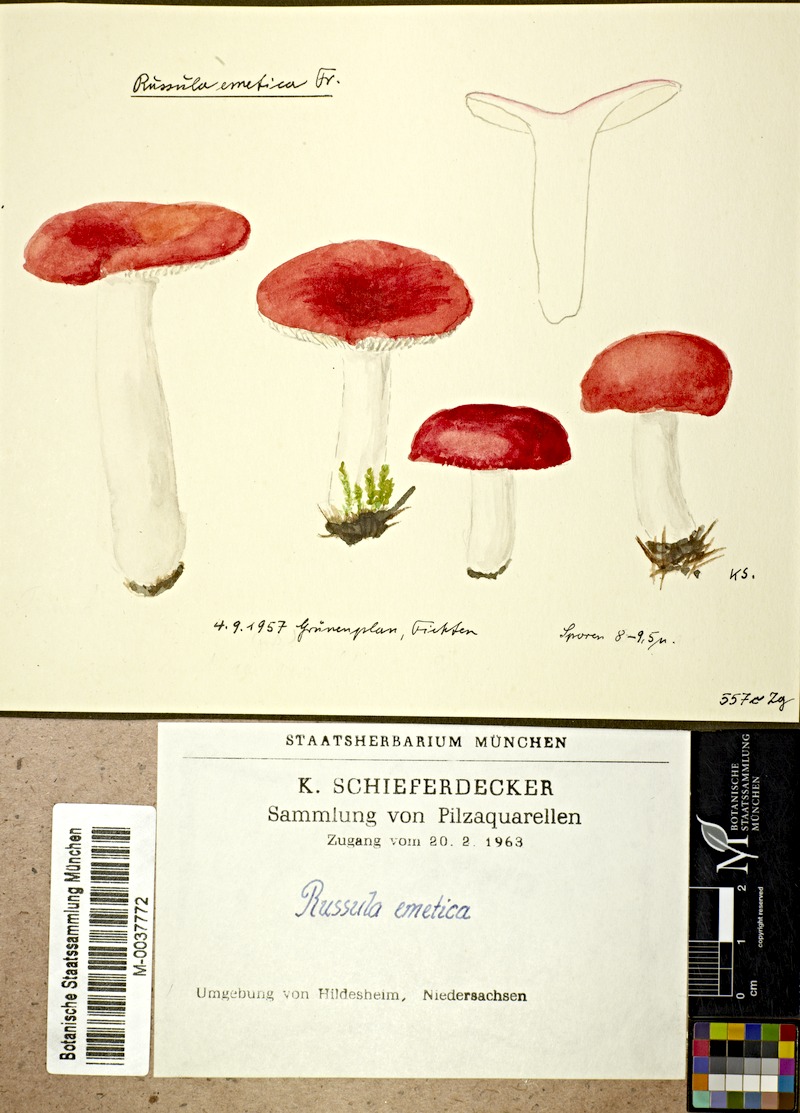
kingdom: Fungi
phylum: Basidiomycota
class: Agaricomycetes
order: Russulales
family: Russulaceae
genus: Russula
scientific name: Russula
